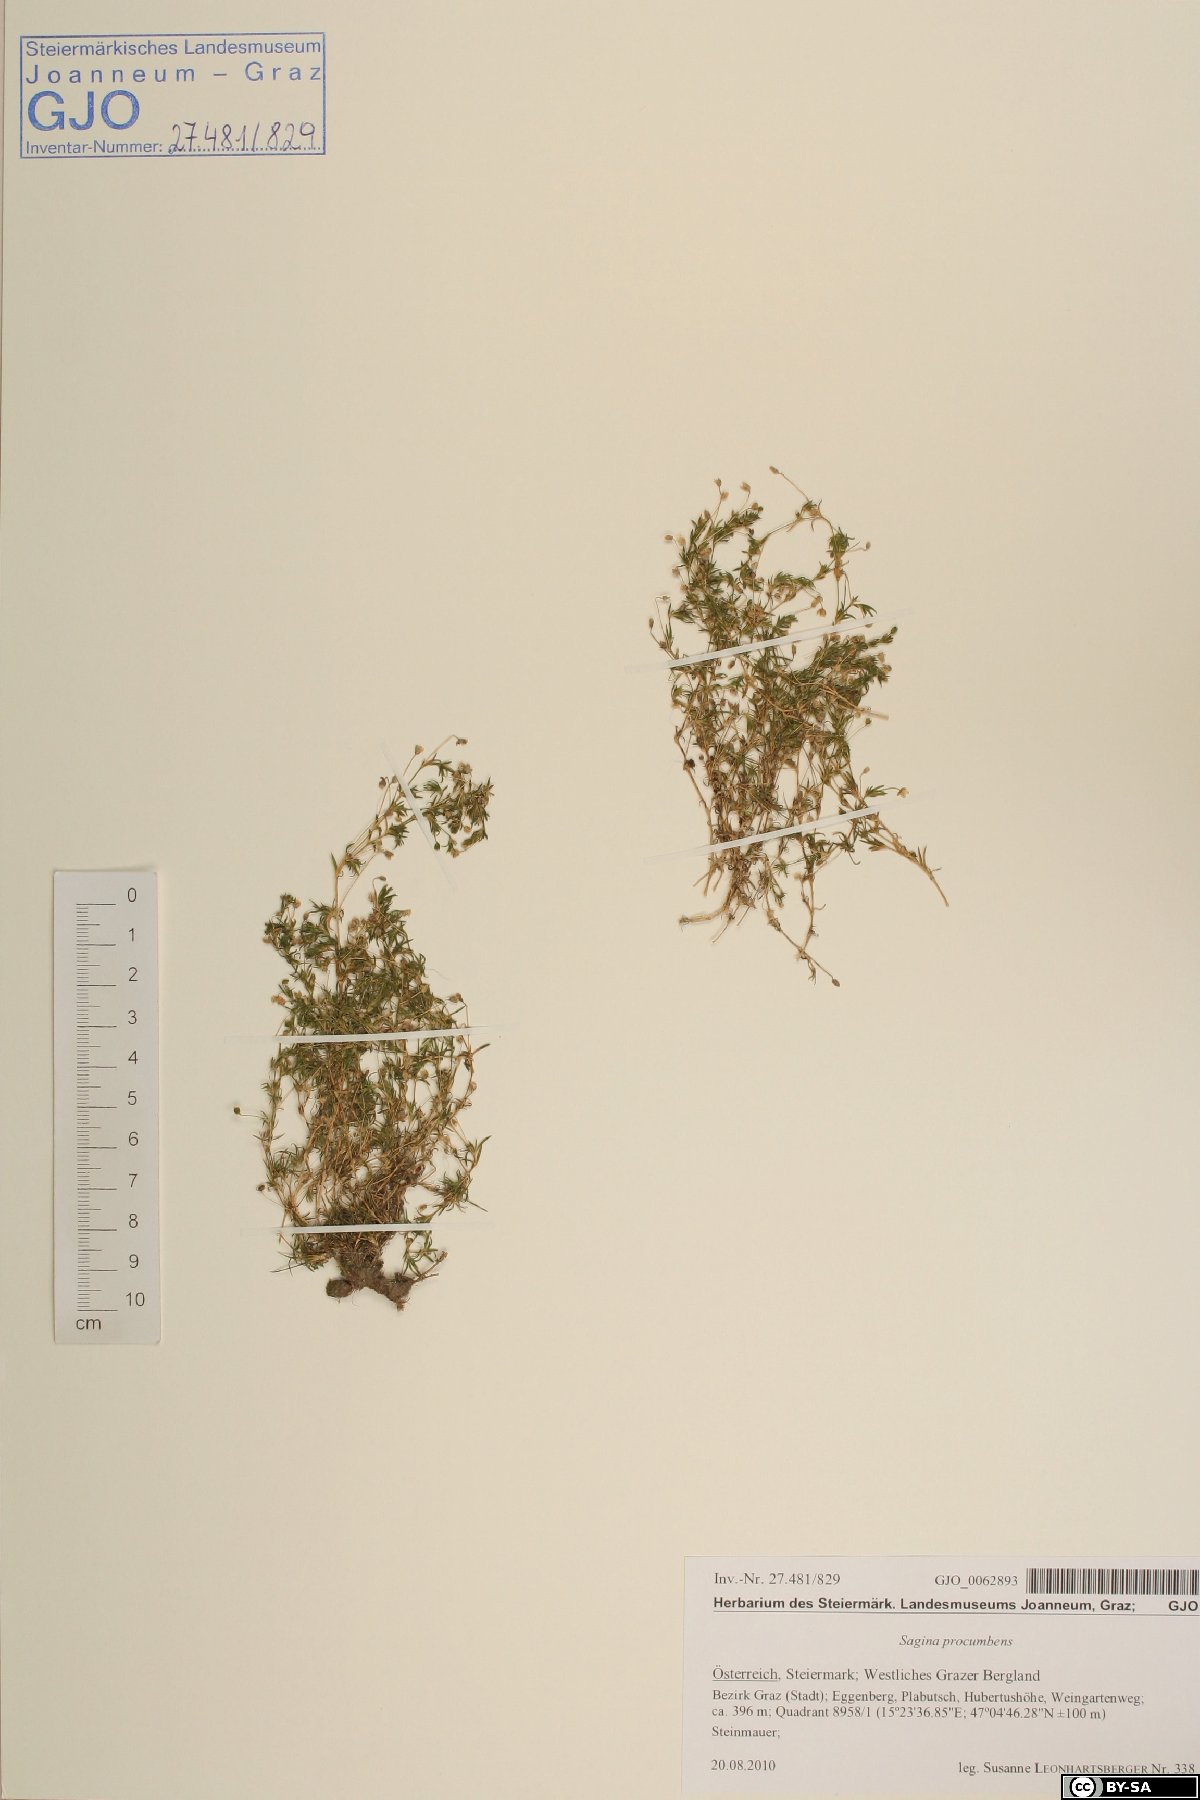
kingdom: Plantae
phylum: Tracheophyta
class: Magnoliopsida
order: Caryophyllales
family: Caryophyllaceae
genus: Sagina
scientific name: Sagina procumbens
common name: Procumbent pearlwort
